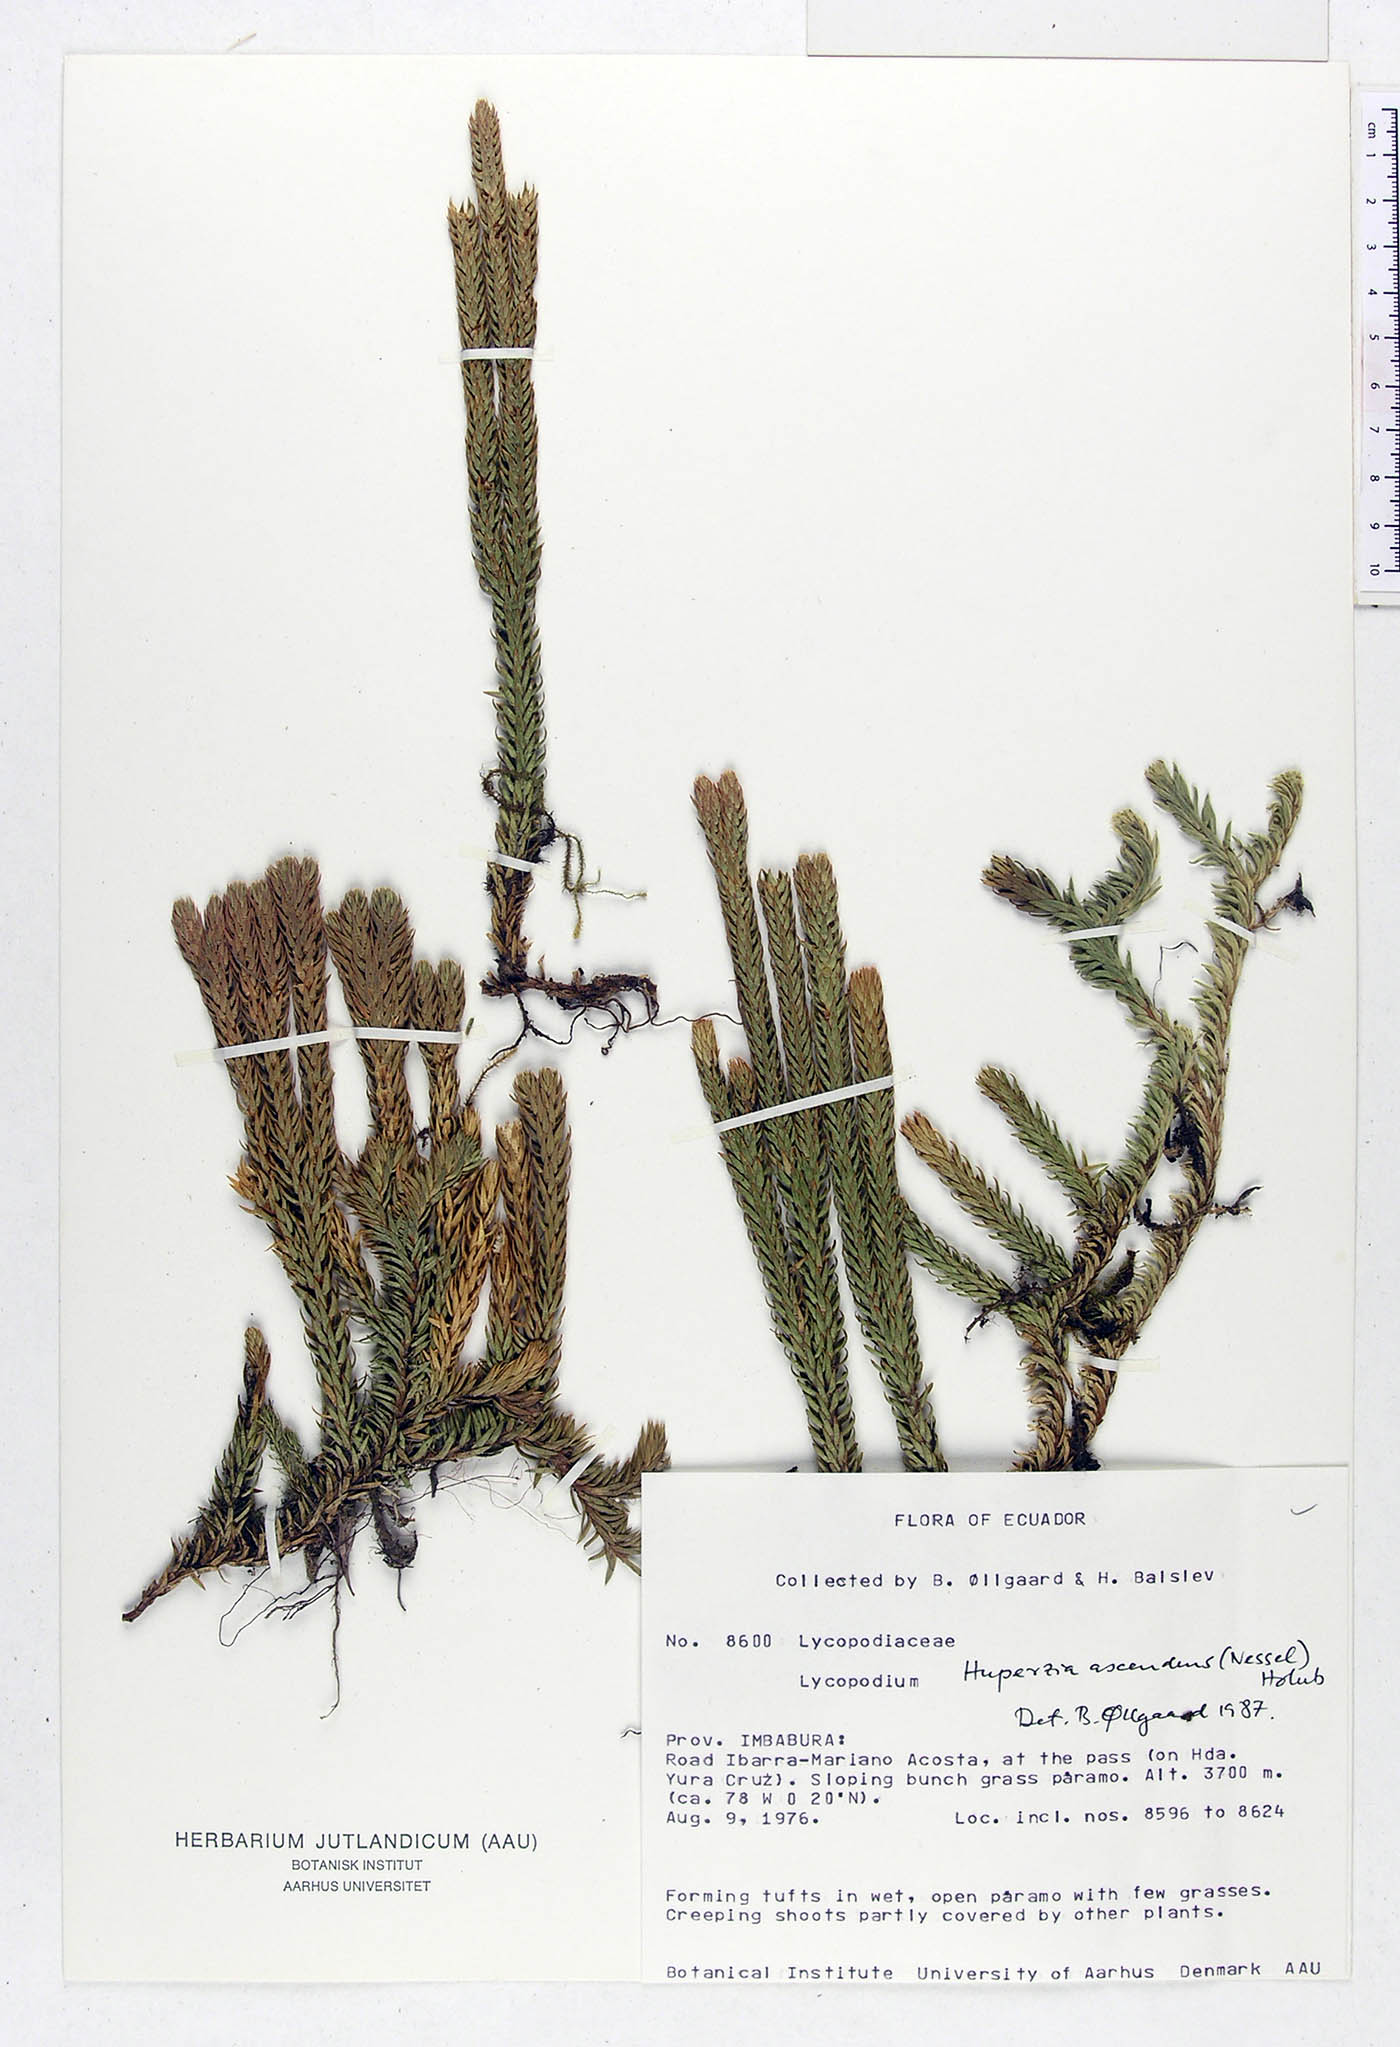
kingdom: Plantae
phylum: Tracheophyta
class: Lycopodiopsida
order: Lycopodiales
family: Lycopodiaceae
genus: Phlegmariurus
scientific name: Phlegmariurus crassus
